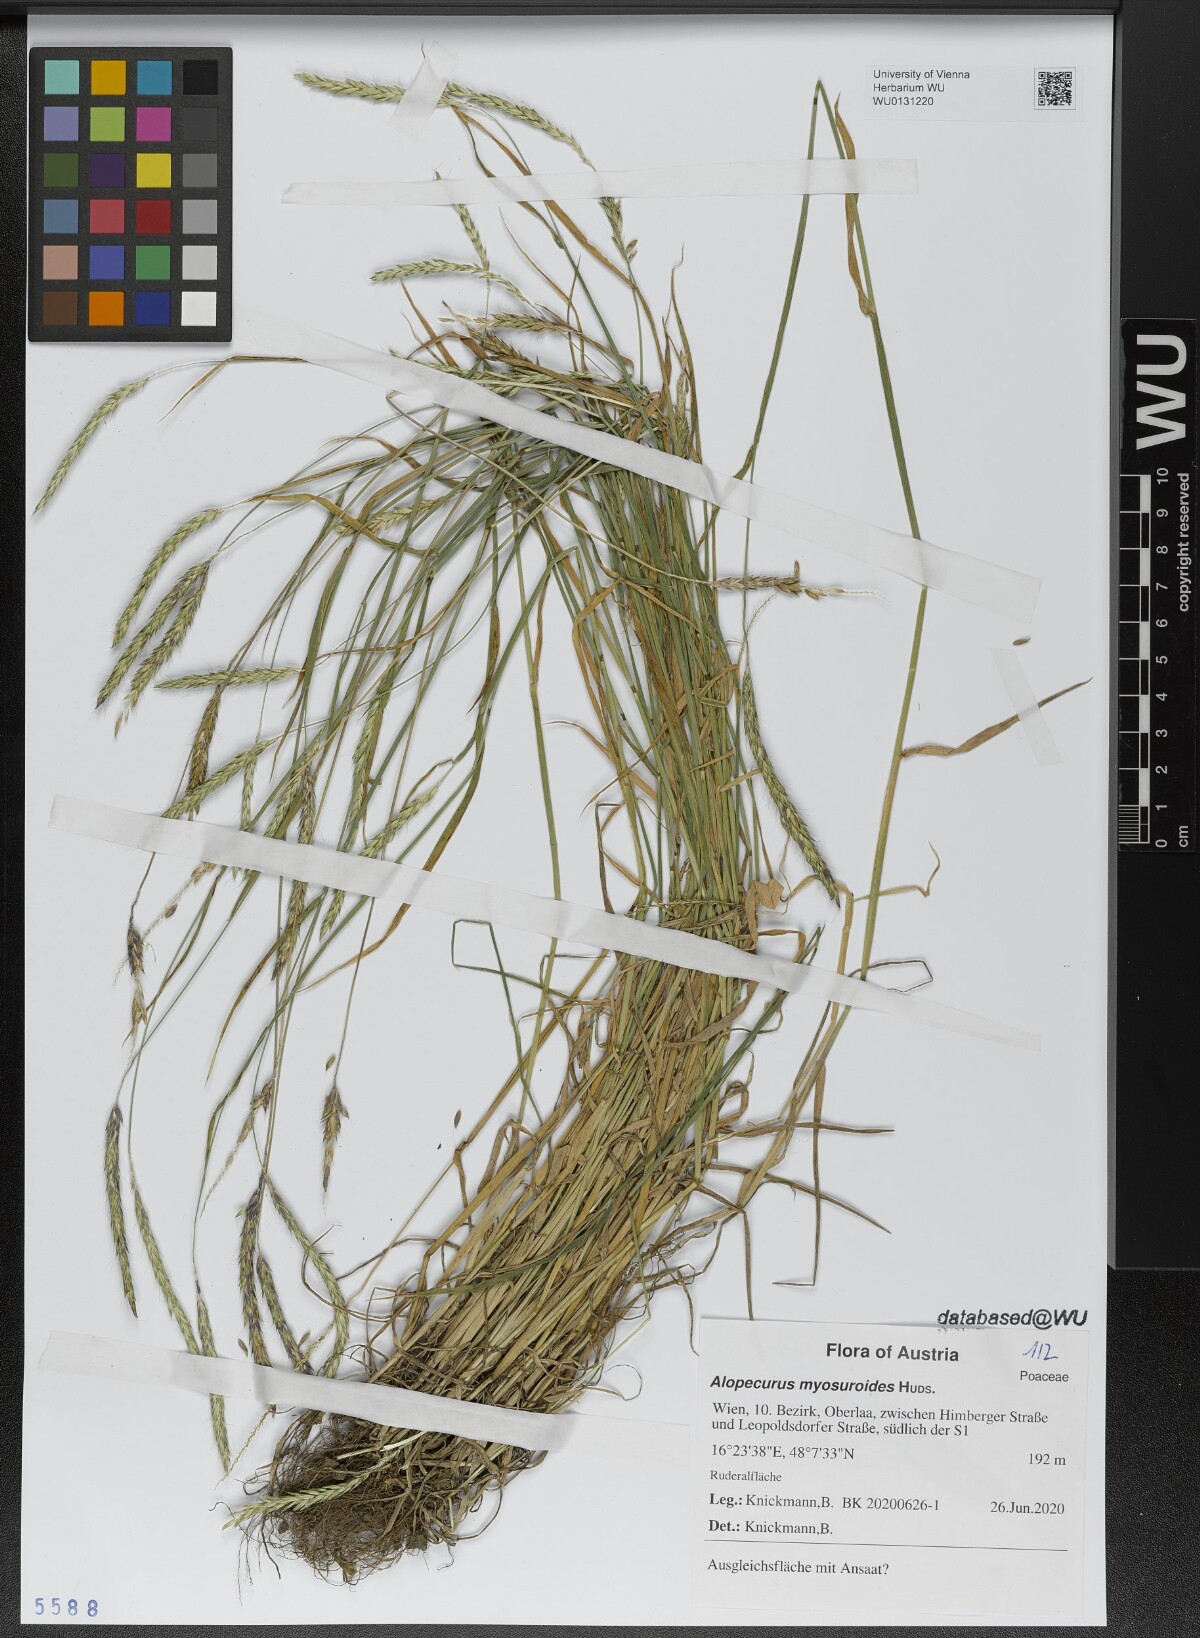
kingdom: Plantae
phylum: Tracheophyta
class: Liliopsida
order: Poales
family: Poaceae
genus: Alopecurus
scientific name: Alopecurus myosuroides
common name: Black-grass
